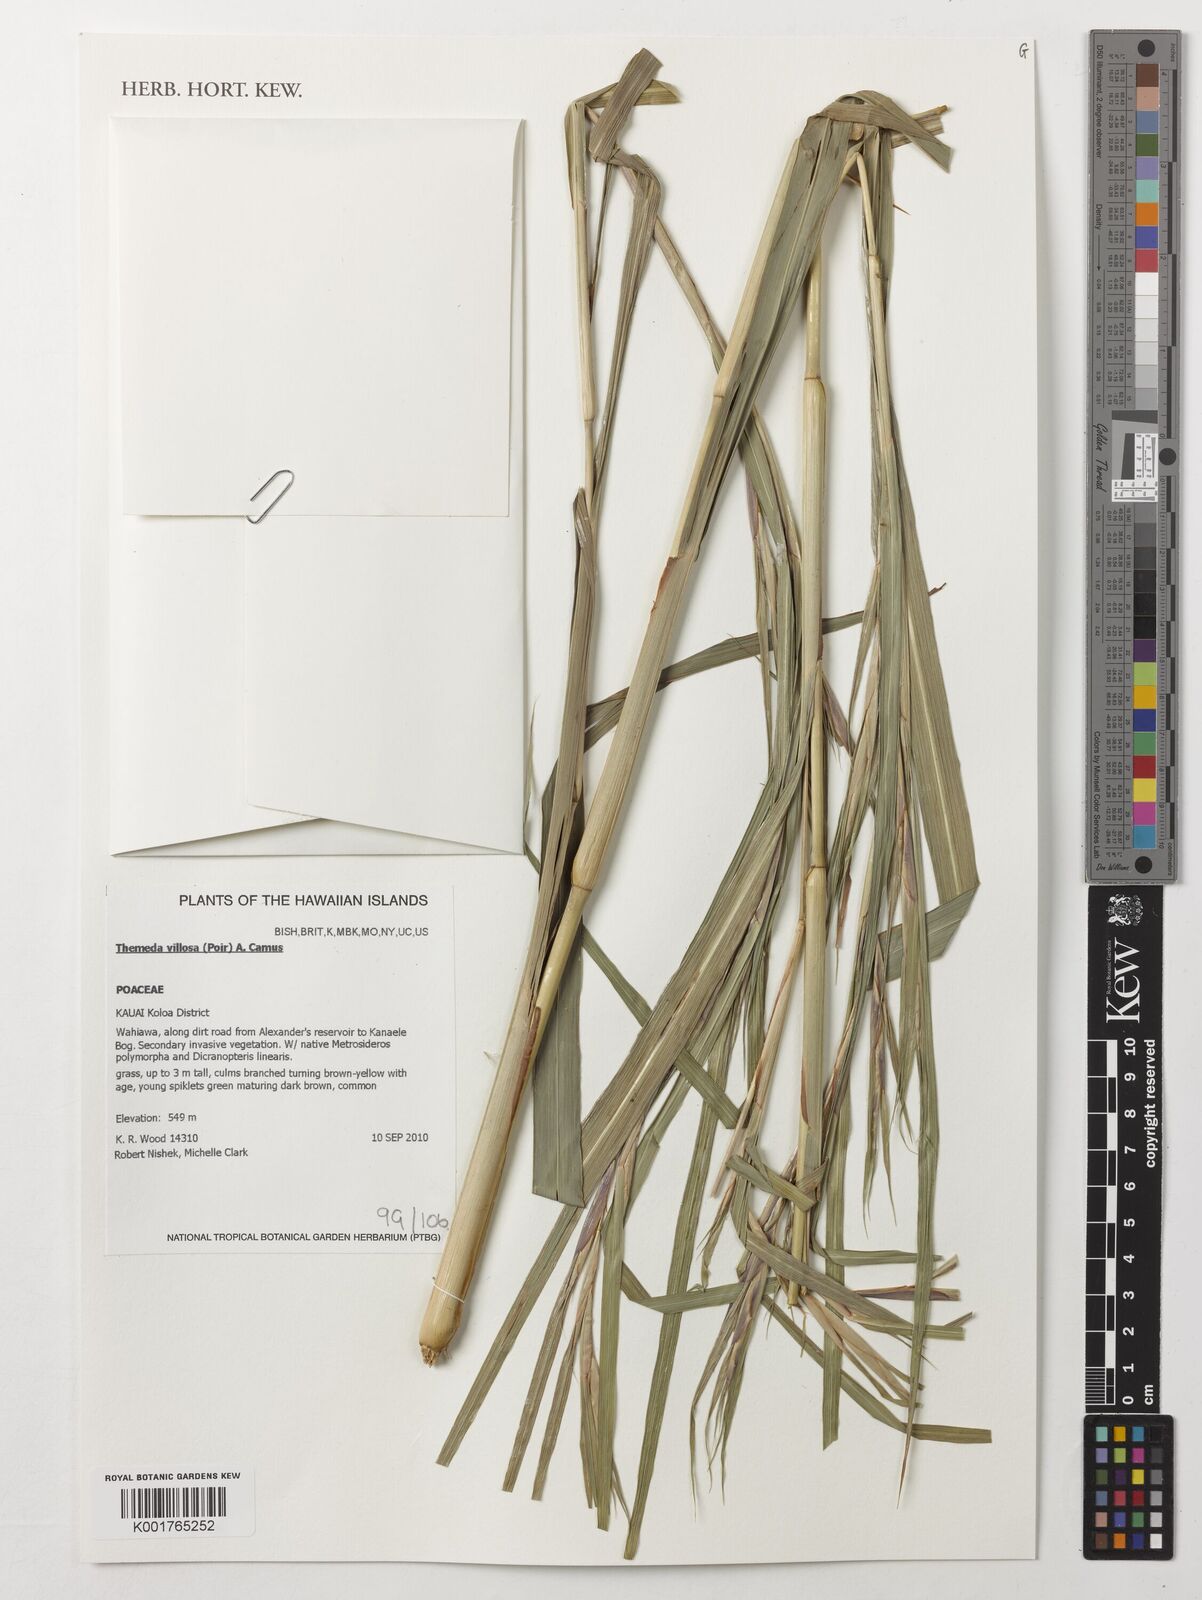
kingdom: Plantae
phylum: Tracheophyta
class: Liliopsida
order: Poales
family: Poaceae
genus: Themeda
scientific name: Themeda villosa
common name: Silky kangaroo grass
